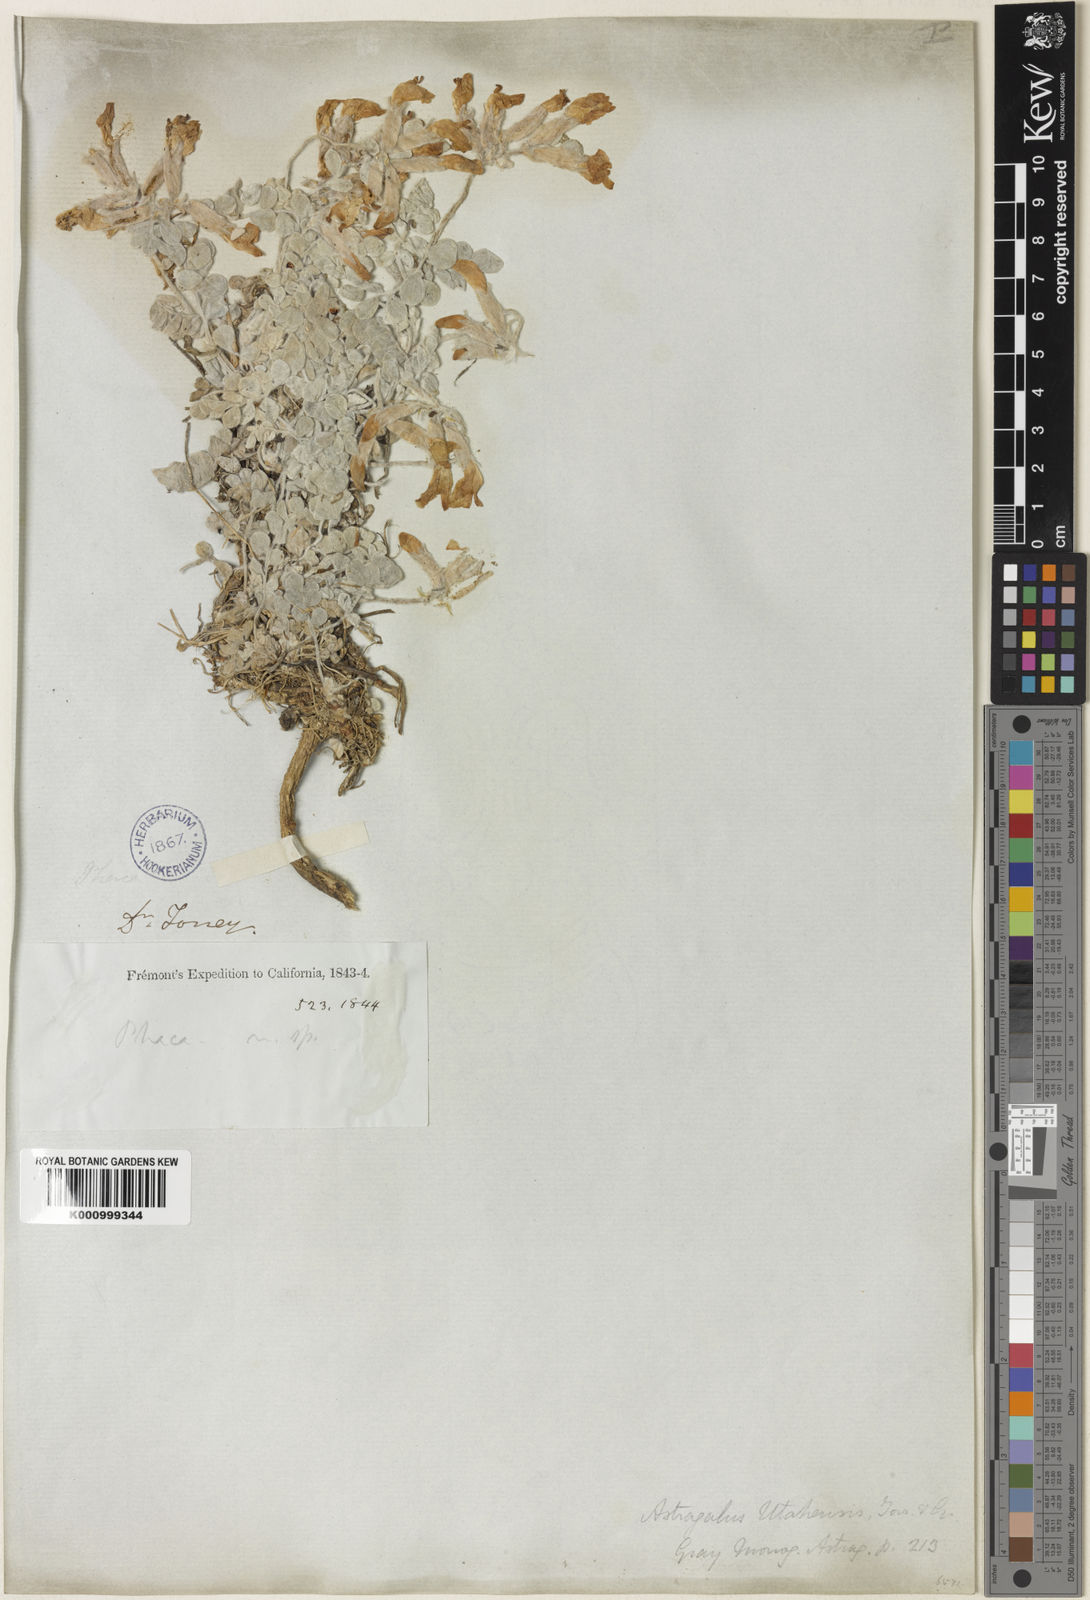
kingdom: Plantae
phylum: Tracheophyta
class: Magnoliopsida
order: Fabales
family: Fabaceae
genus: Astragalus
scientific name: Astragalus utahensis
